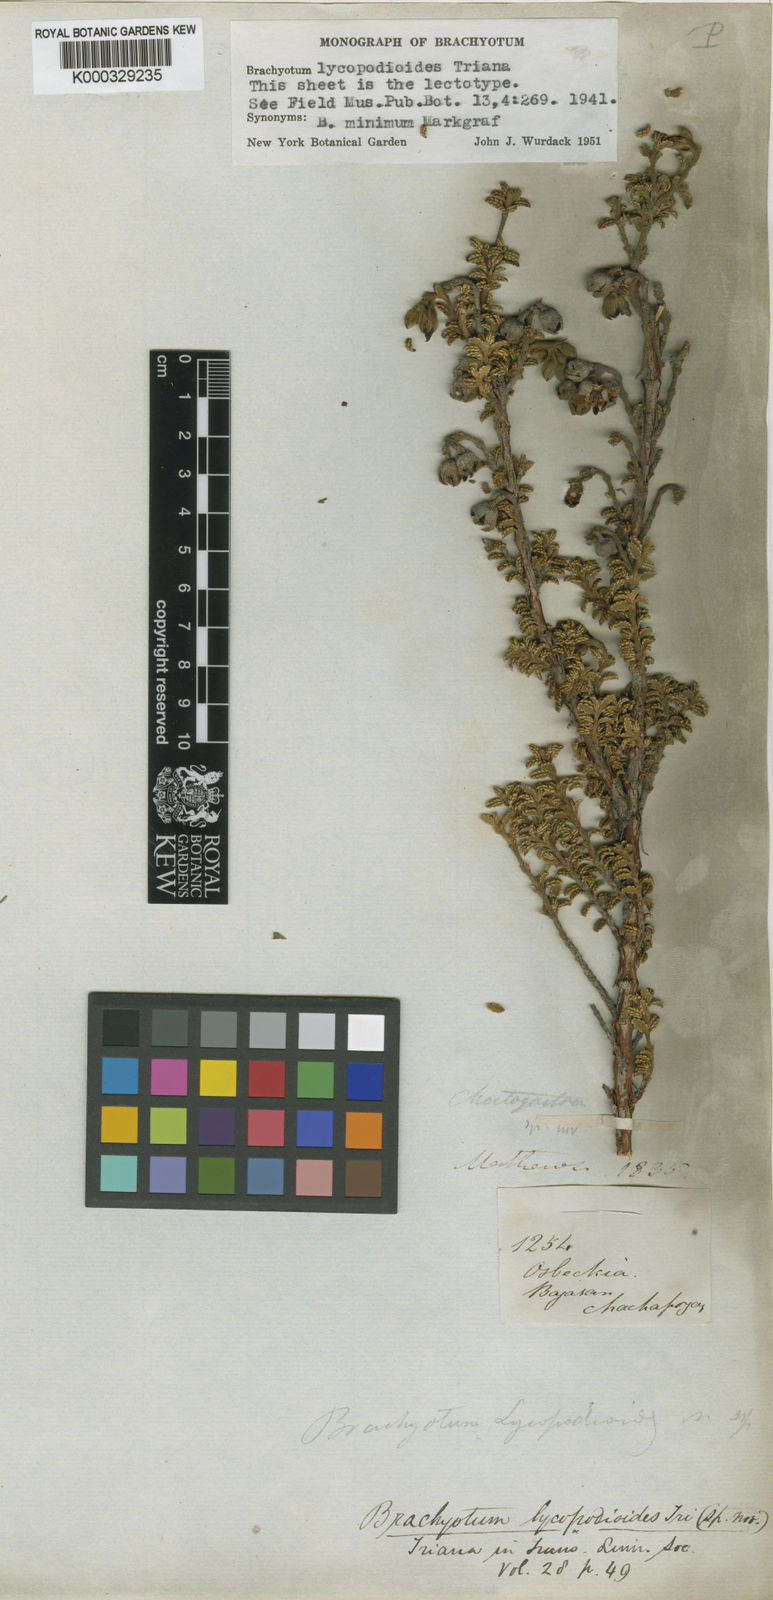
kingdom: Plantae
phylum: Tracheophyta
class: Magnoliopsida
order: Myrtales
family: Melastomataceae
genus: Brachyotum
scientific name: Brachyotum lycopodioides
